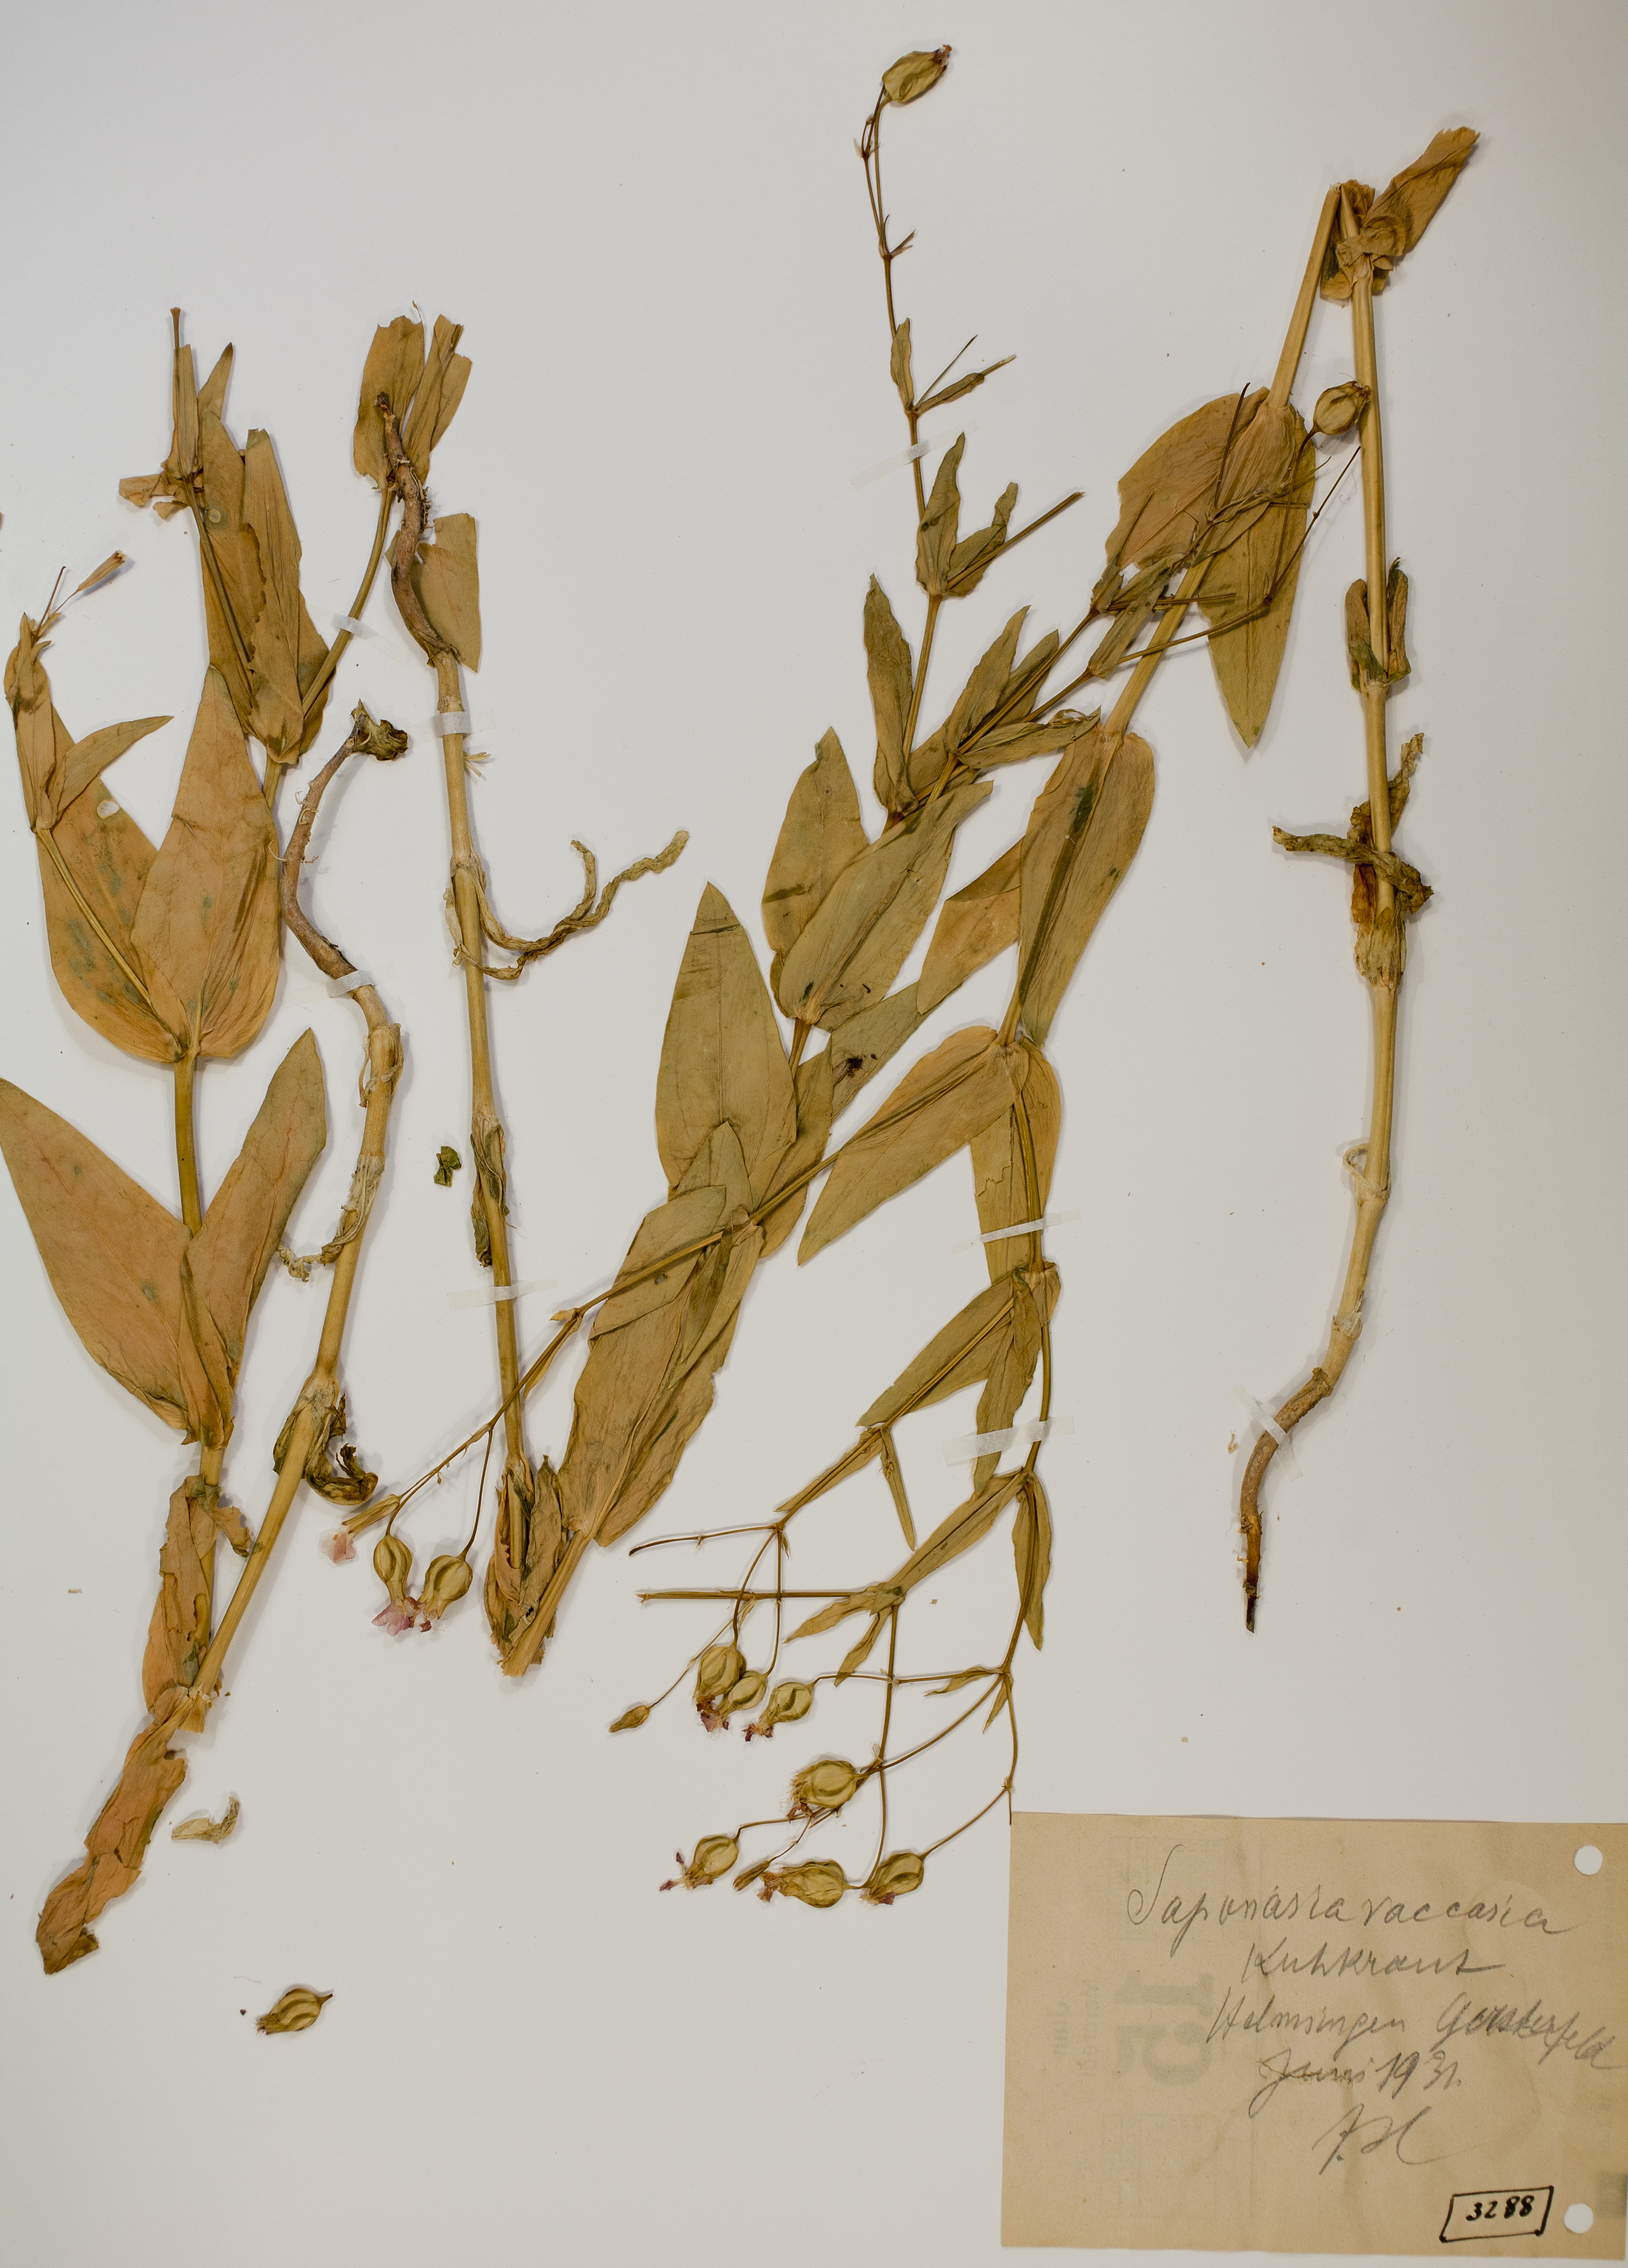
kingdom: Plantae
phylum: Tracheophyta
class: Magnoliopsida
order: Caryophyllales
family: Caryophyllaceae
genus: Gypsophila
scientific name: Gypsophila vaccaria
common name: Cow soapwort
